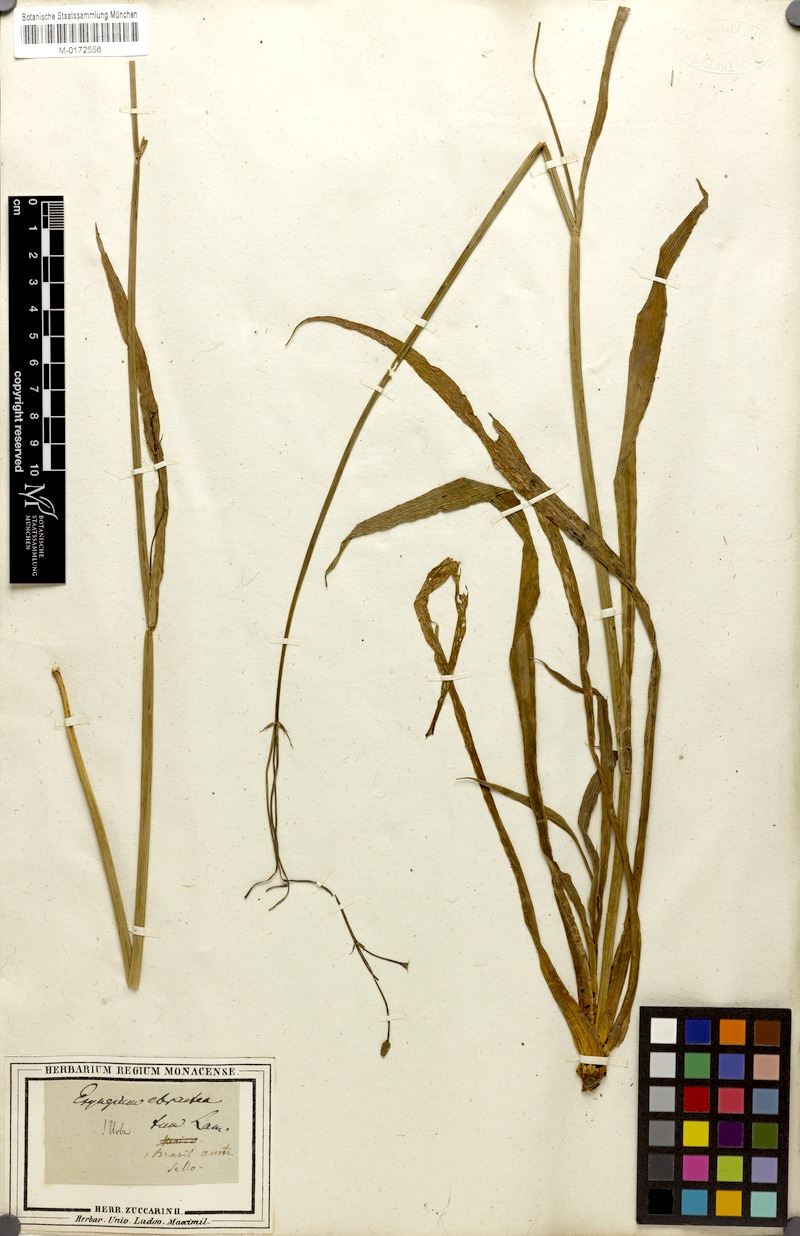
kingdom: Plantae
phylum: Tracheophyta
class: Magnoliopsida
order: Apiales
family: Apiaceae
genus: Eryngium
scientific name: Eryngium ebracteatum
